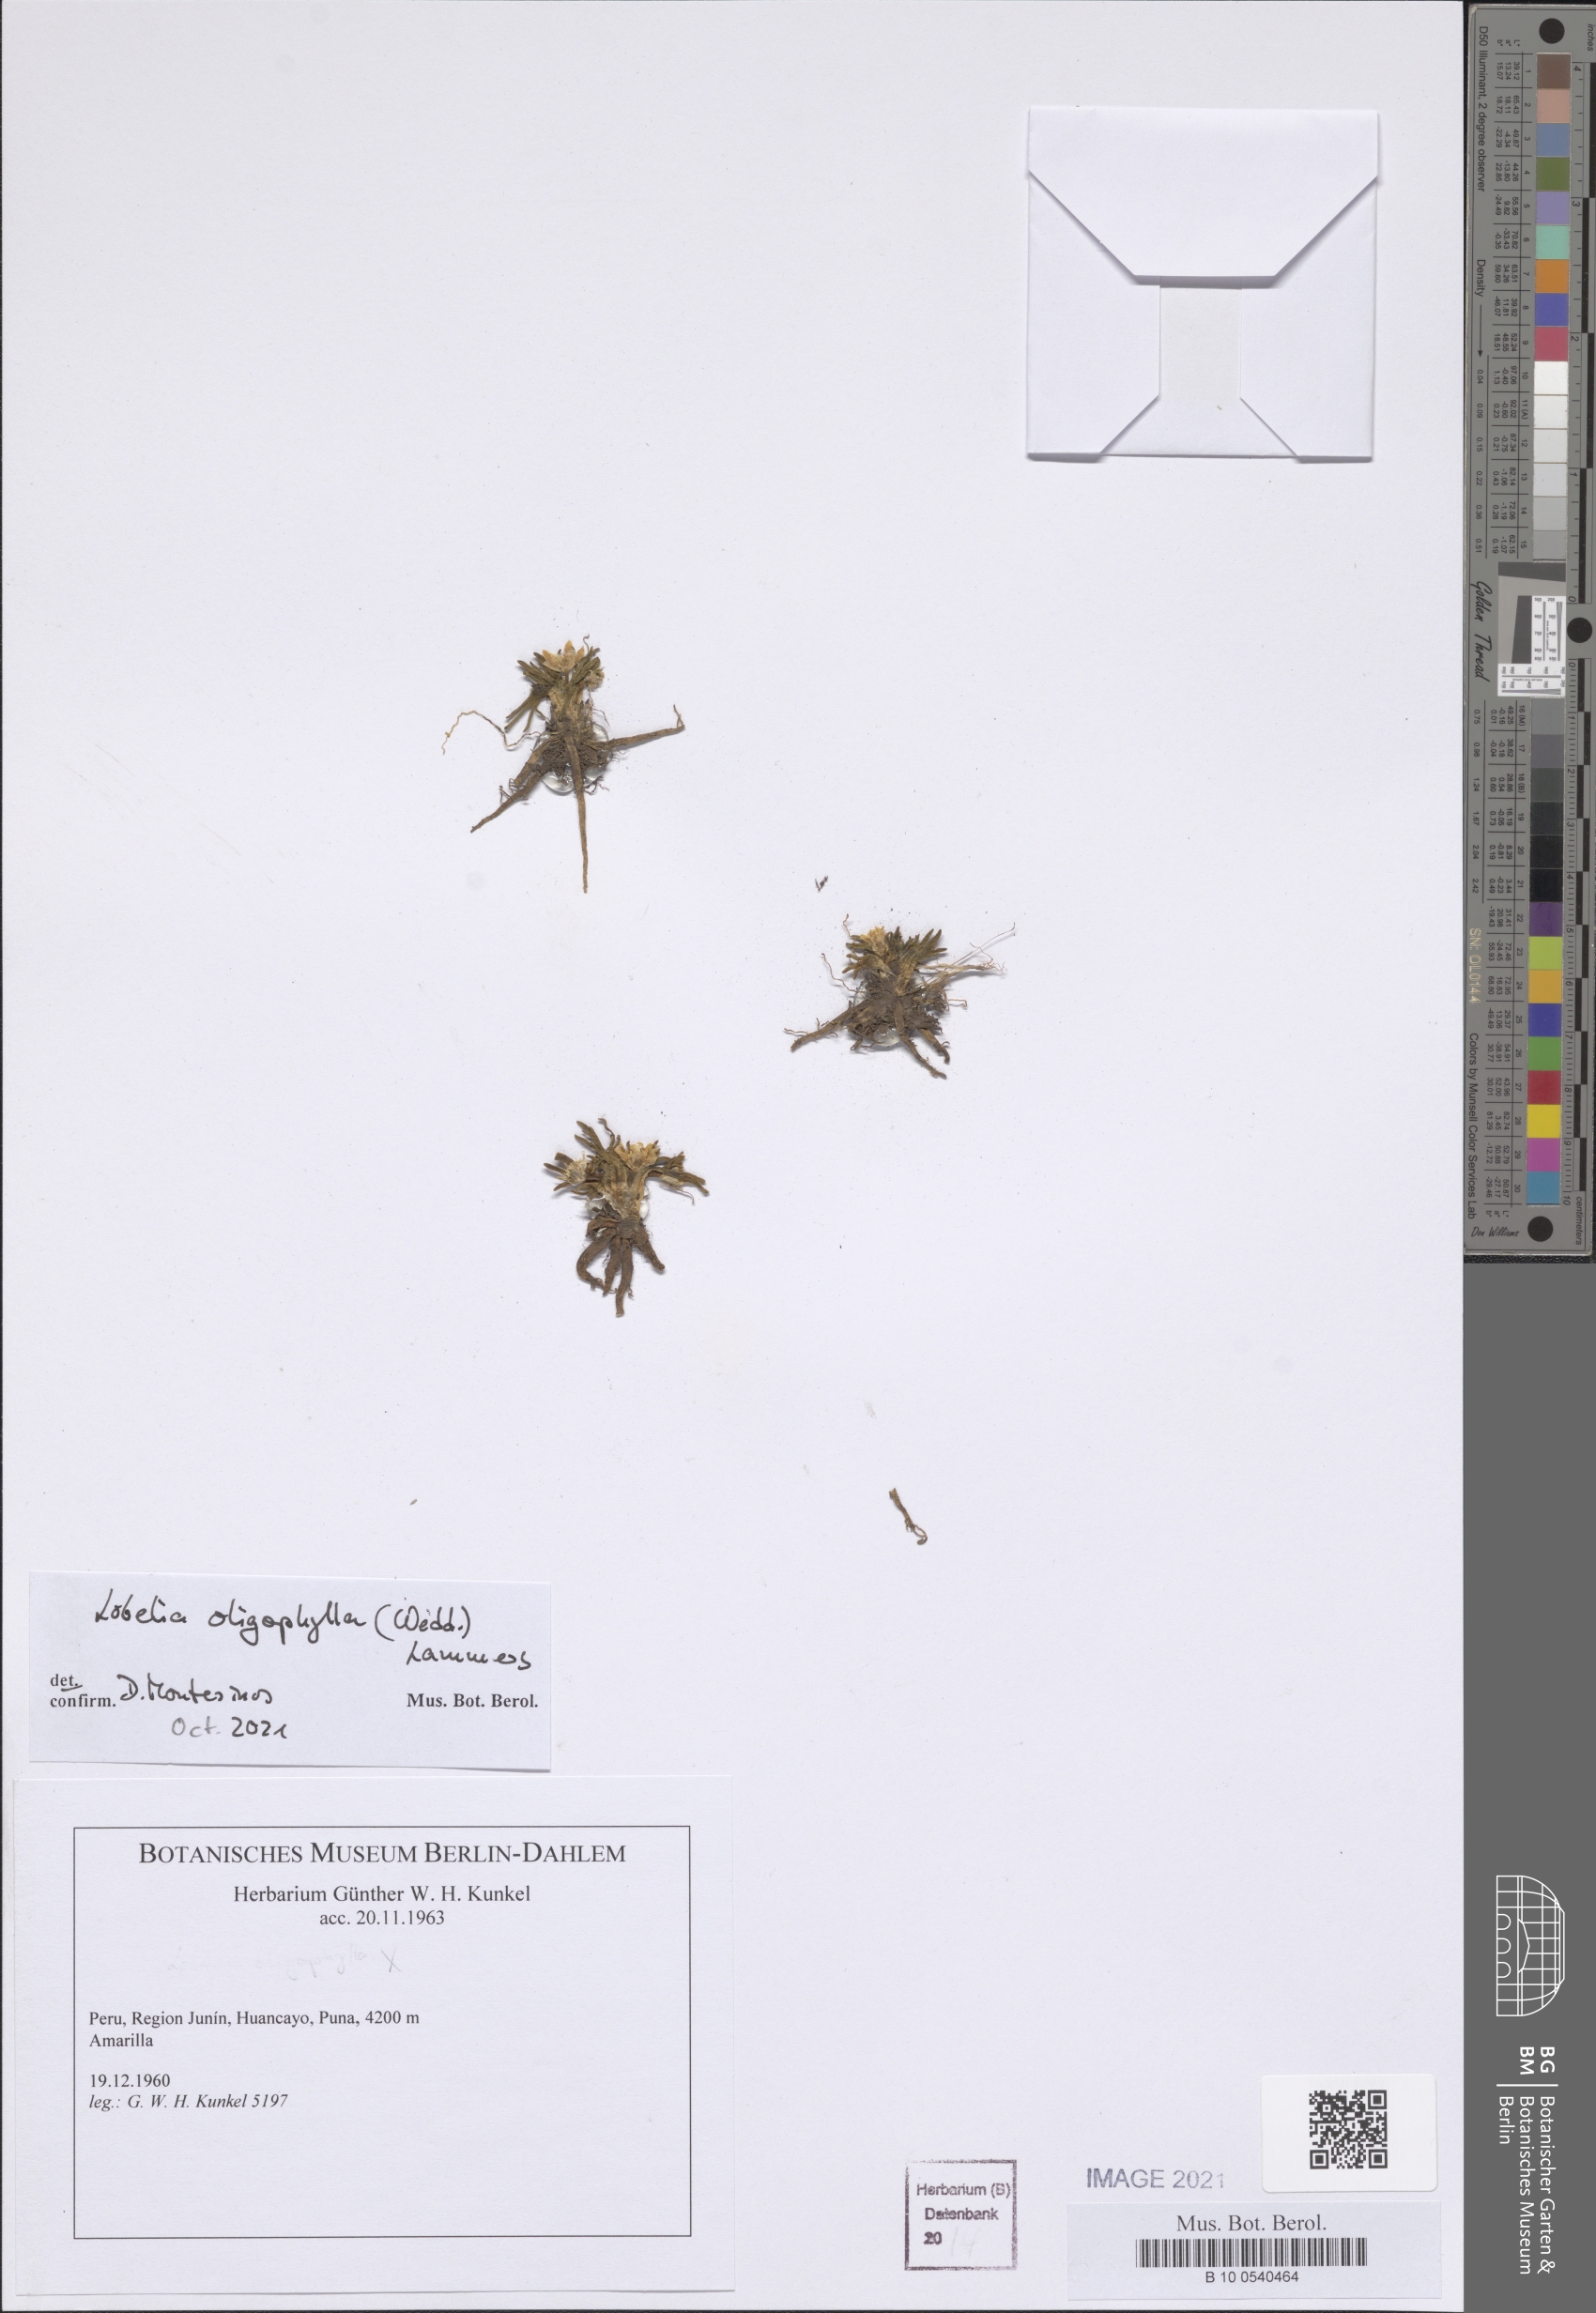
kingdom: Plantae
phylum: Tracheophyta
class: Magnoliopsida
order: Asterales
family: Campanulaceae
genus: Lobelia
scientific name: Lobelia oligophylla
